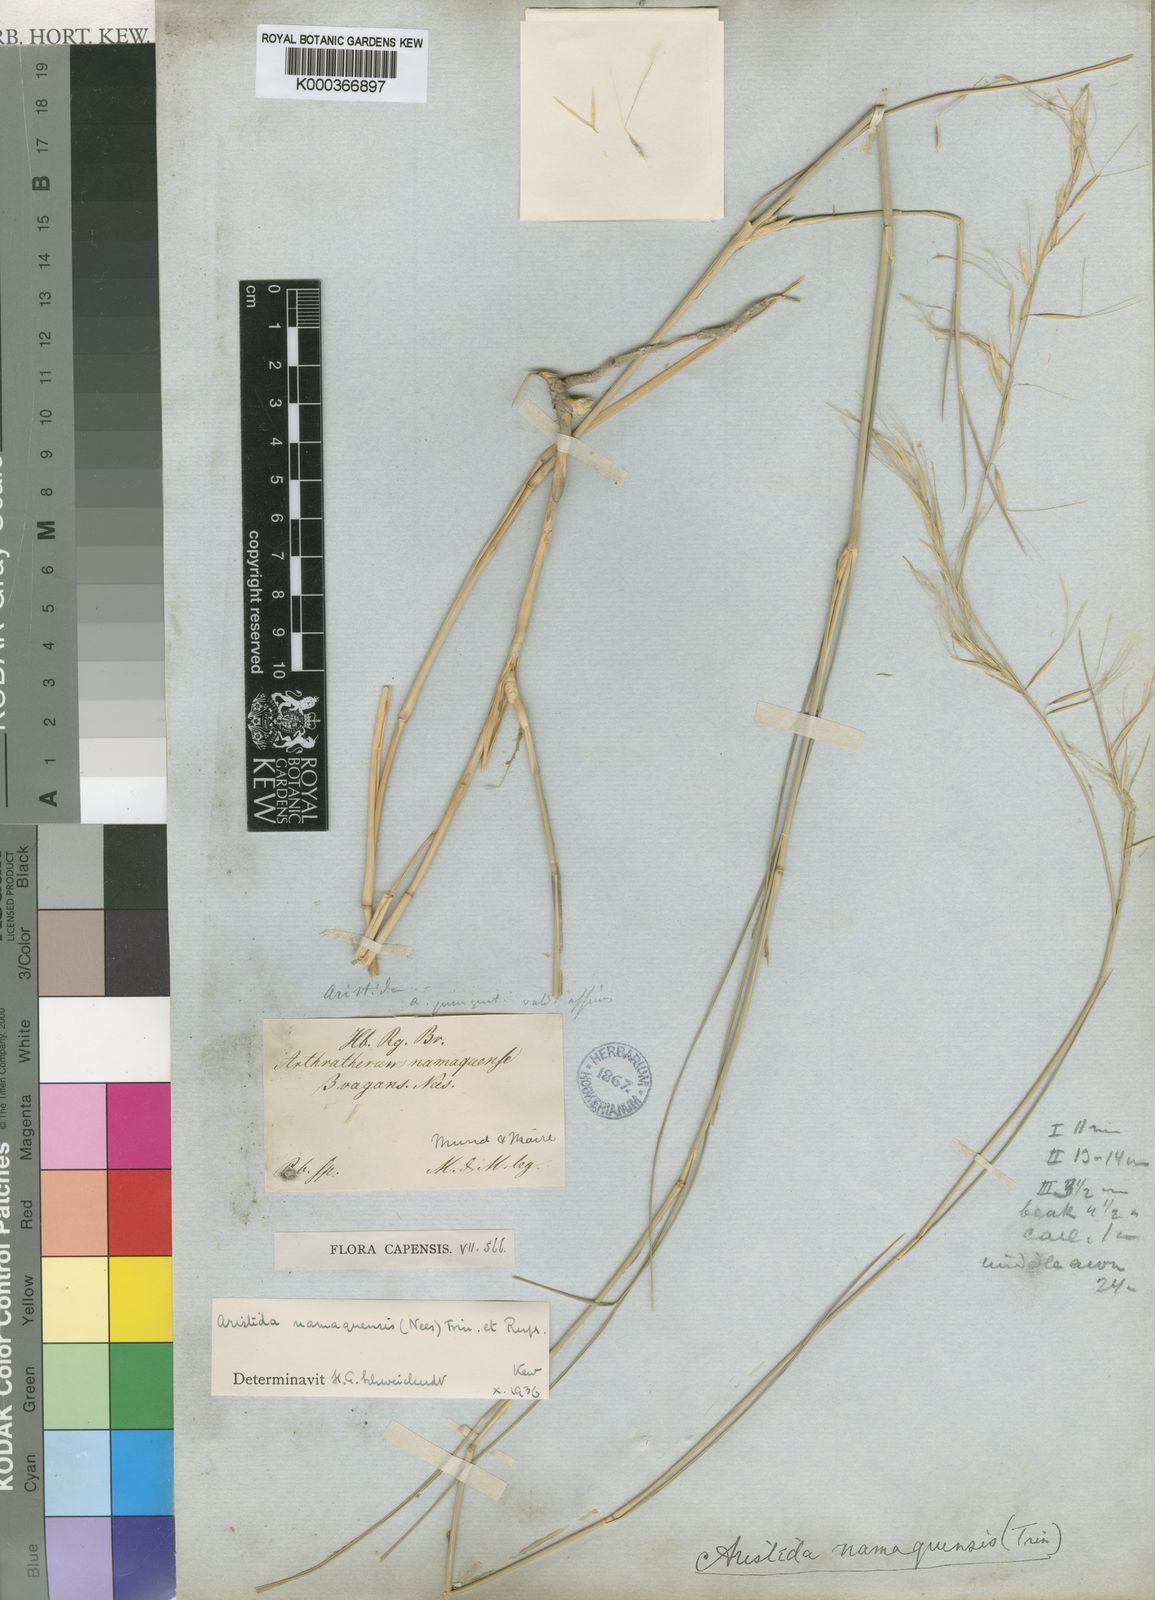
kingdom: Plantae
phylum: Tracheophyta
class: Liliopsida
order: Poales
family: Poaceae
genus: Stipagrostis
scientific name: Stipagrostis namaquensis
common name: River bushman grass
